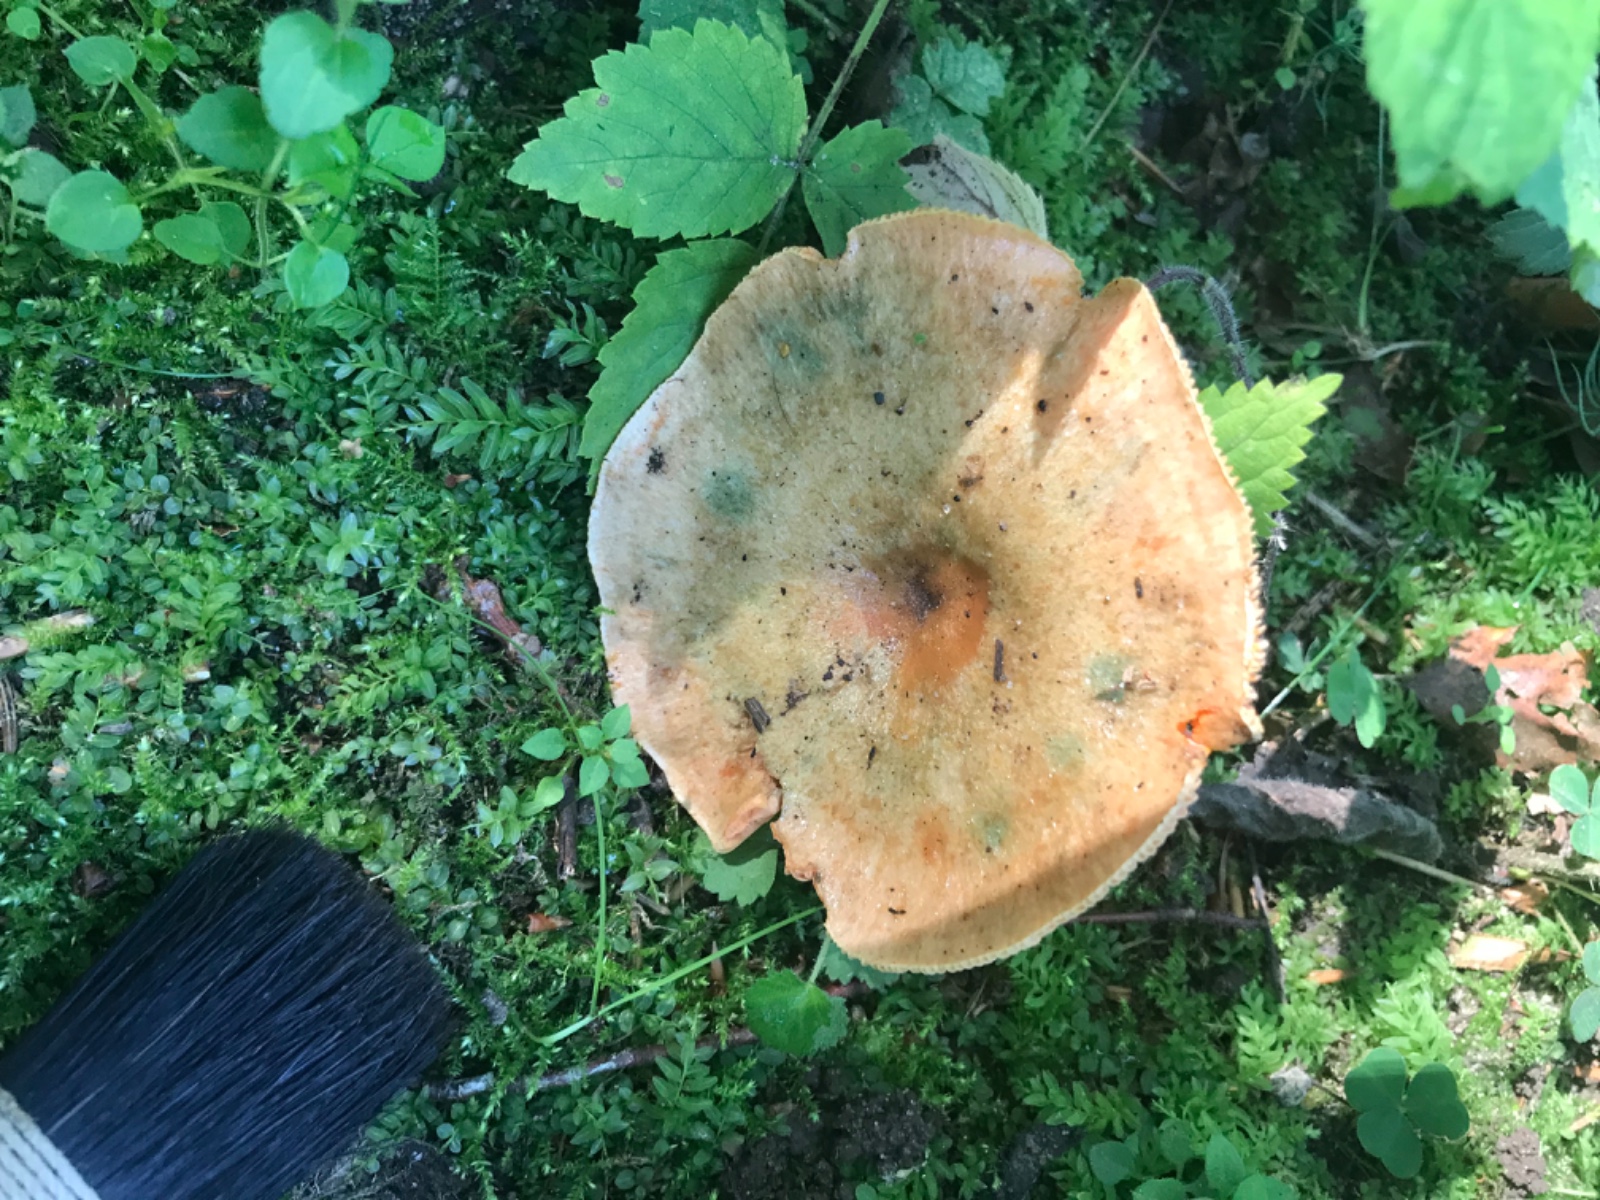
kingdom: Fungi
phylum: Basidiomycota
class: Agaricomycetes
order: Russulales
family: Russulaceae
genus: Lactarius
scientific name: Lactarius deterrimus
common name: gran-mælkehat
